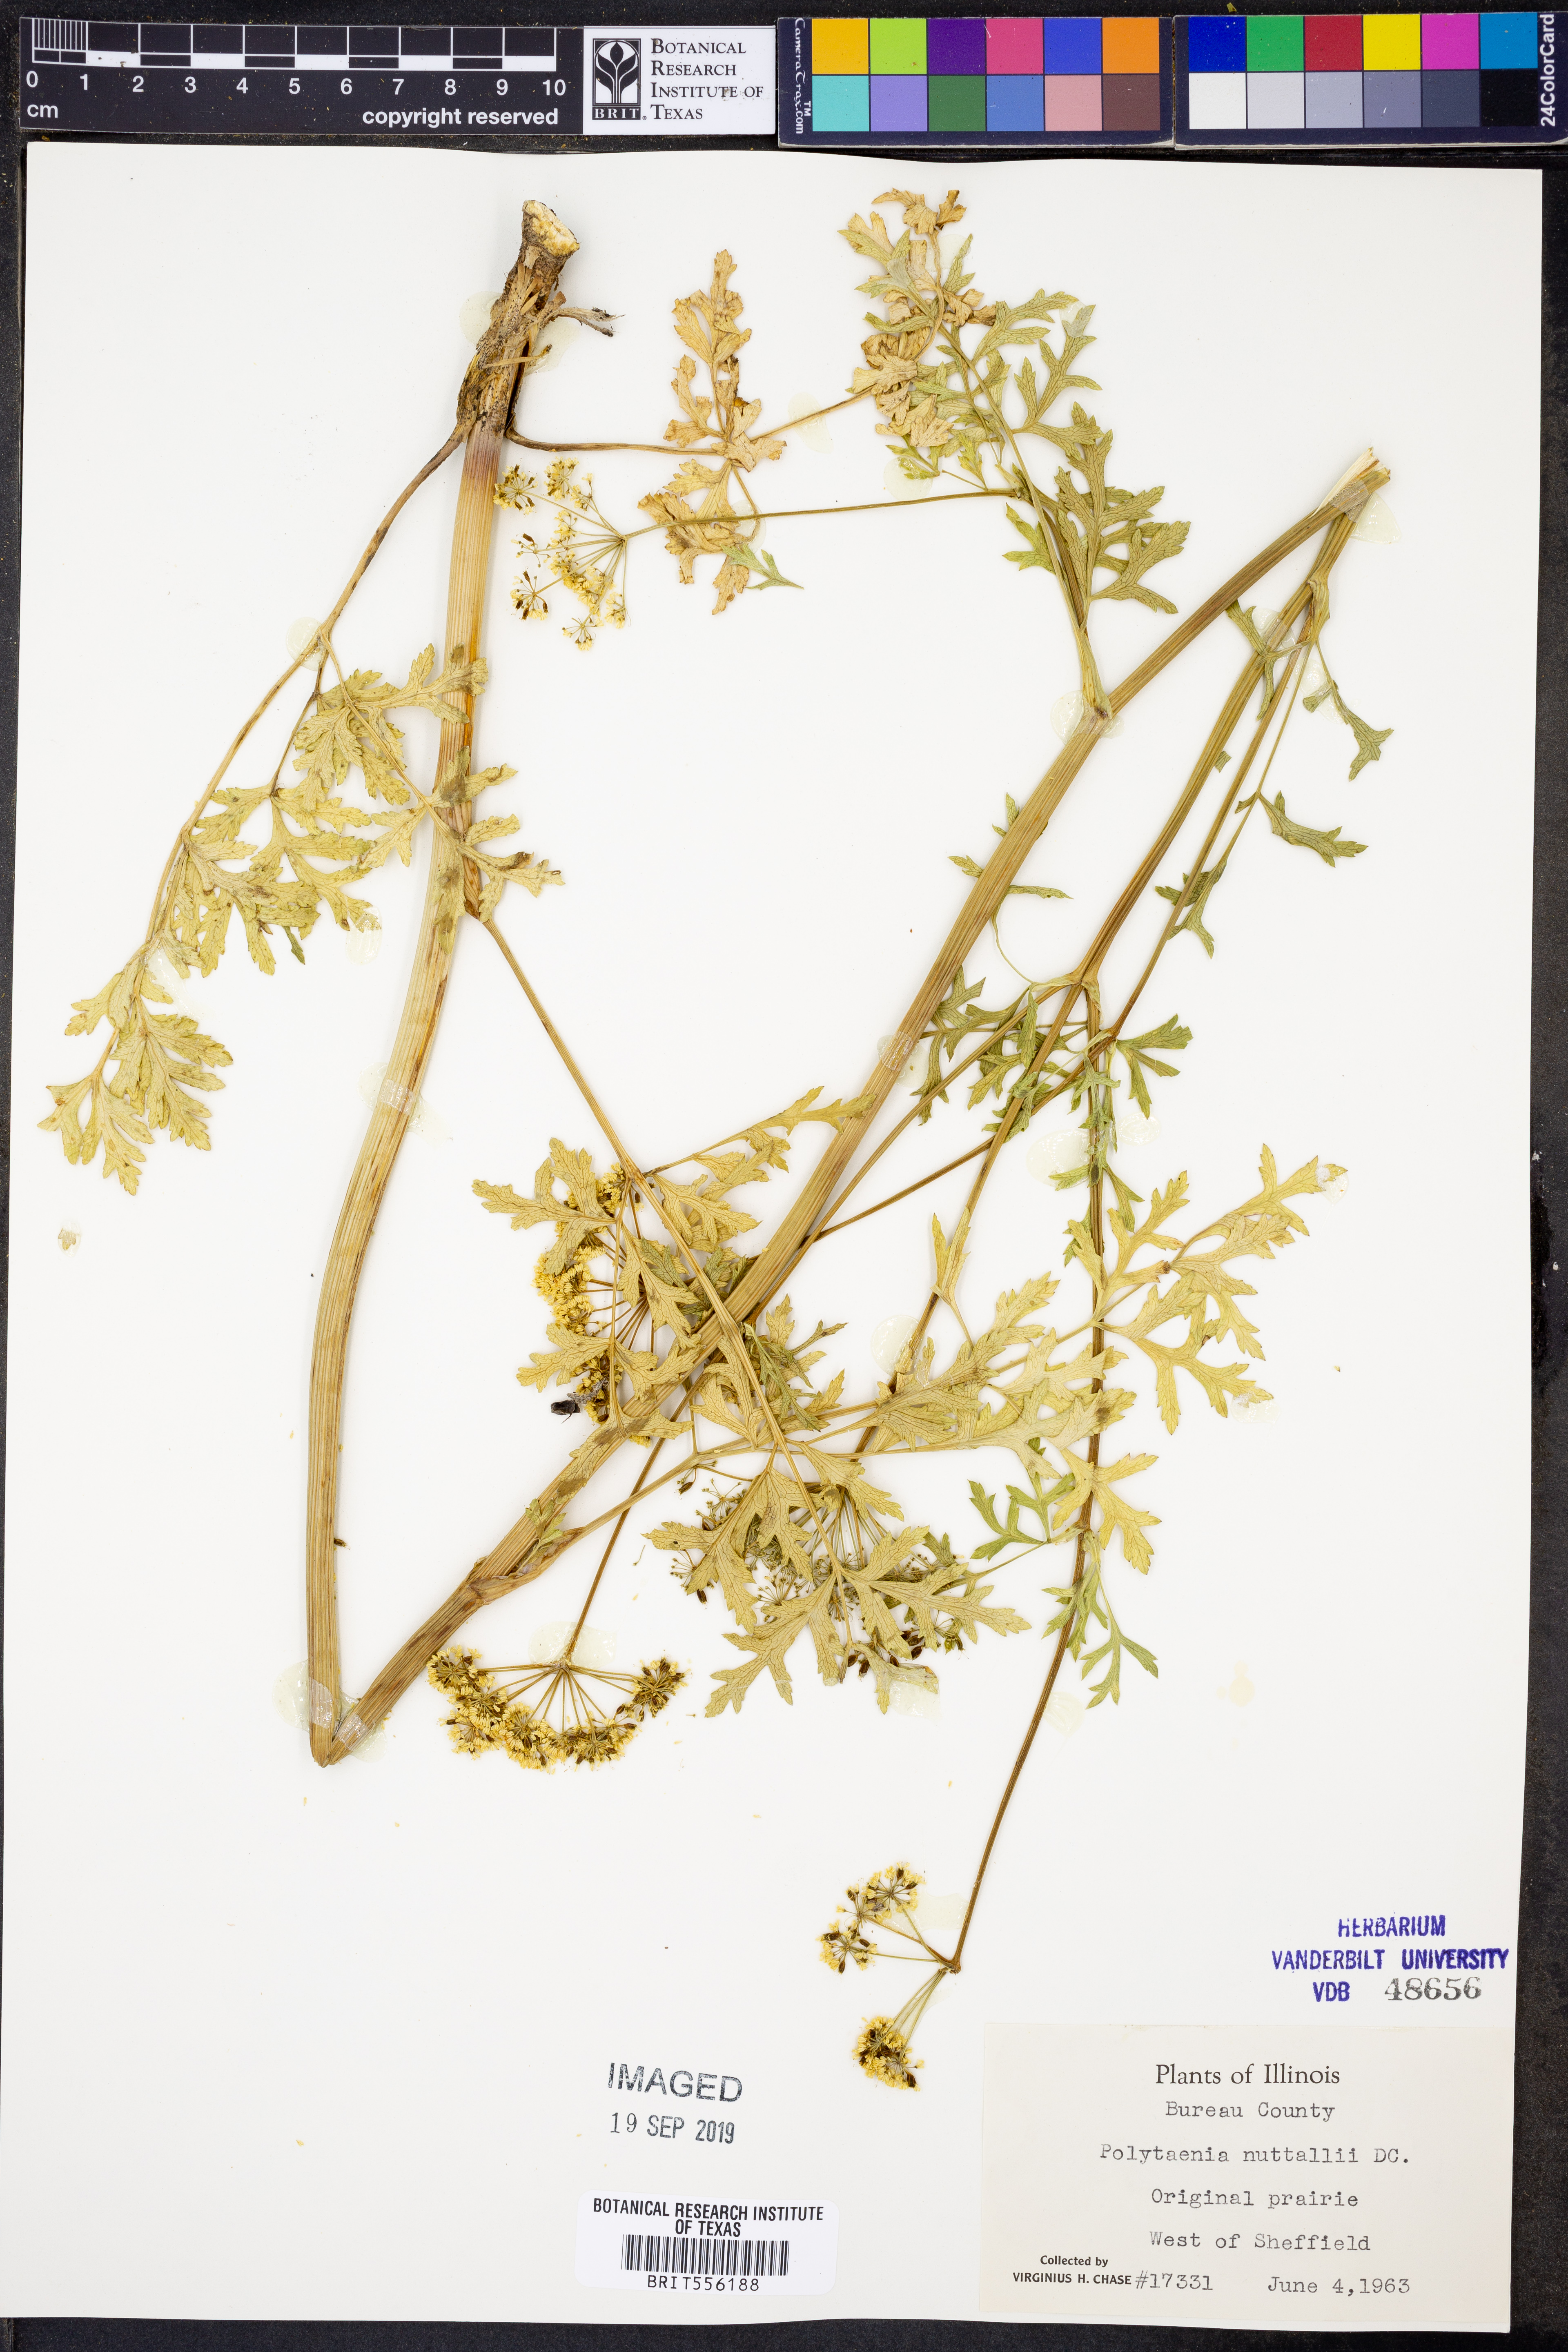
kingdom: Plantae
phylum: Tracheophyta
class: Magnoliopsida
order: Apiales
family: Apiaceae
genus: Polytaenia
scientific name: Polytaenia nuttallii
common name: Prairie-parsley
